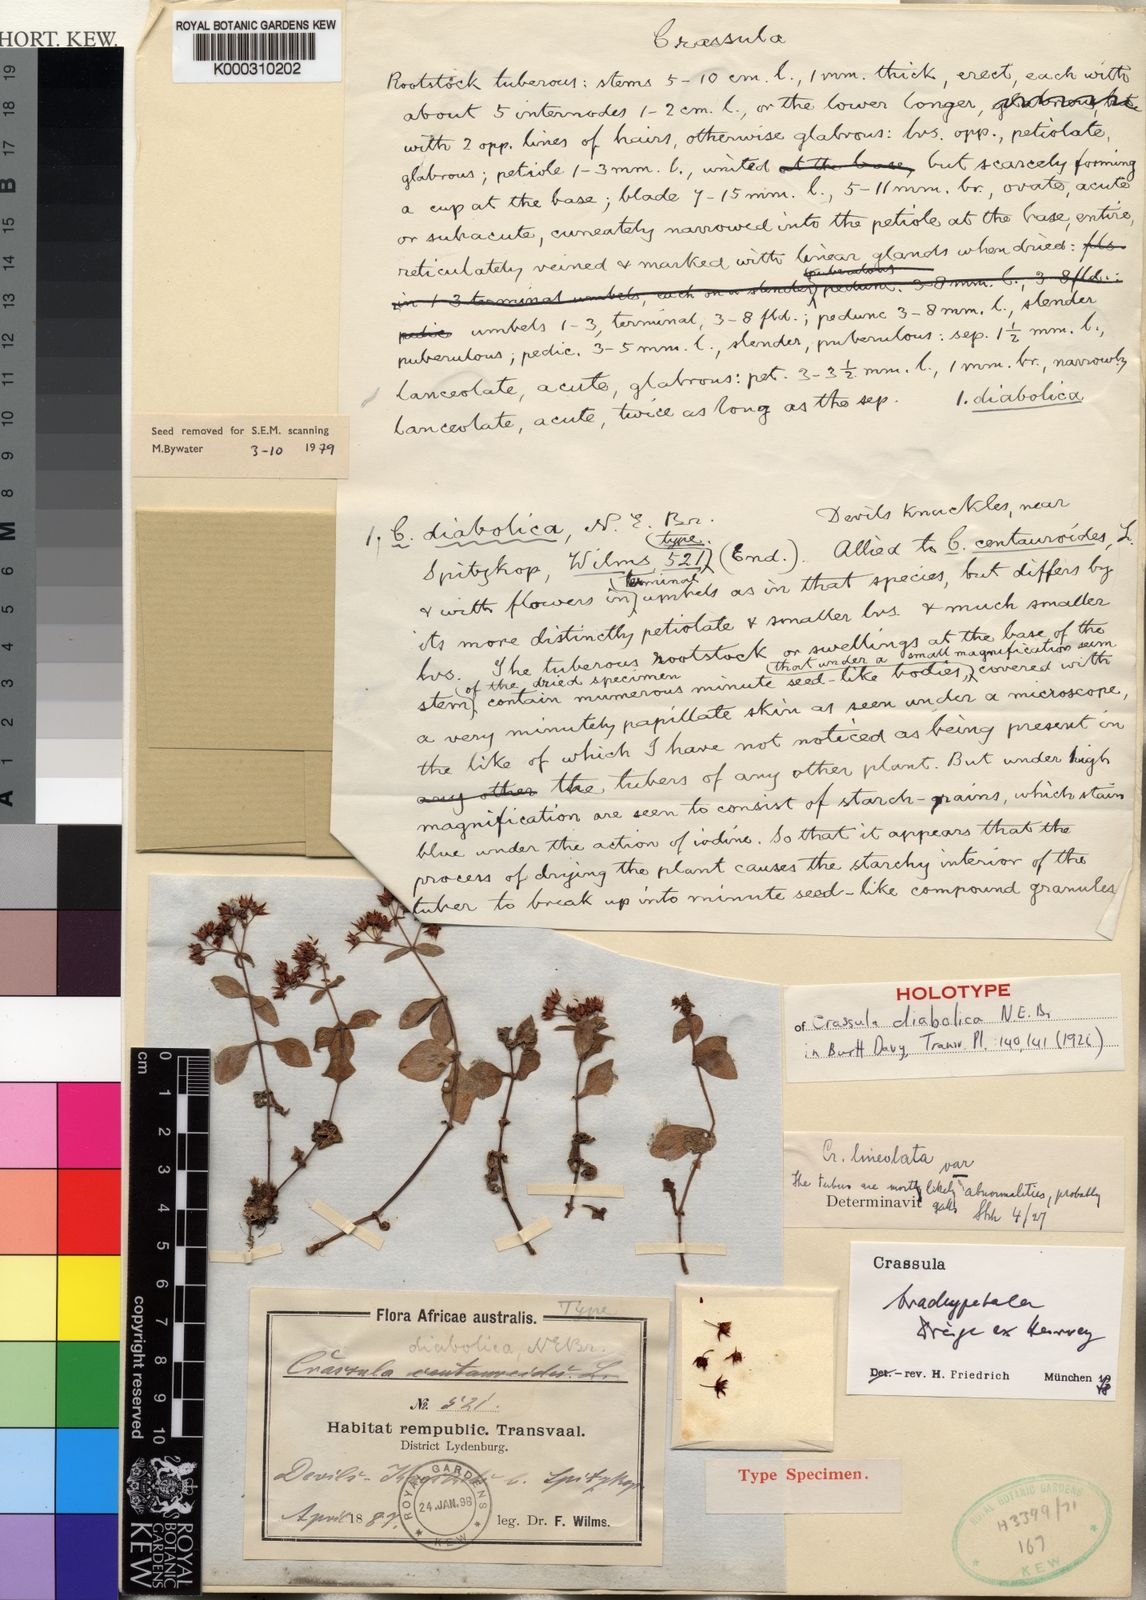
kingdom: Plantae
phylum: Tracheophyta
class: Magnoliopsida
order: Saxifragales
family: Crassulaceae
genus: Crassula
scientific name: Crassula pellucida
